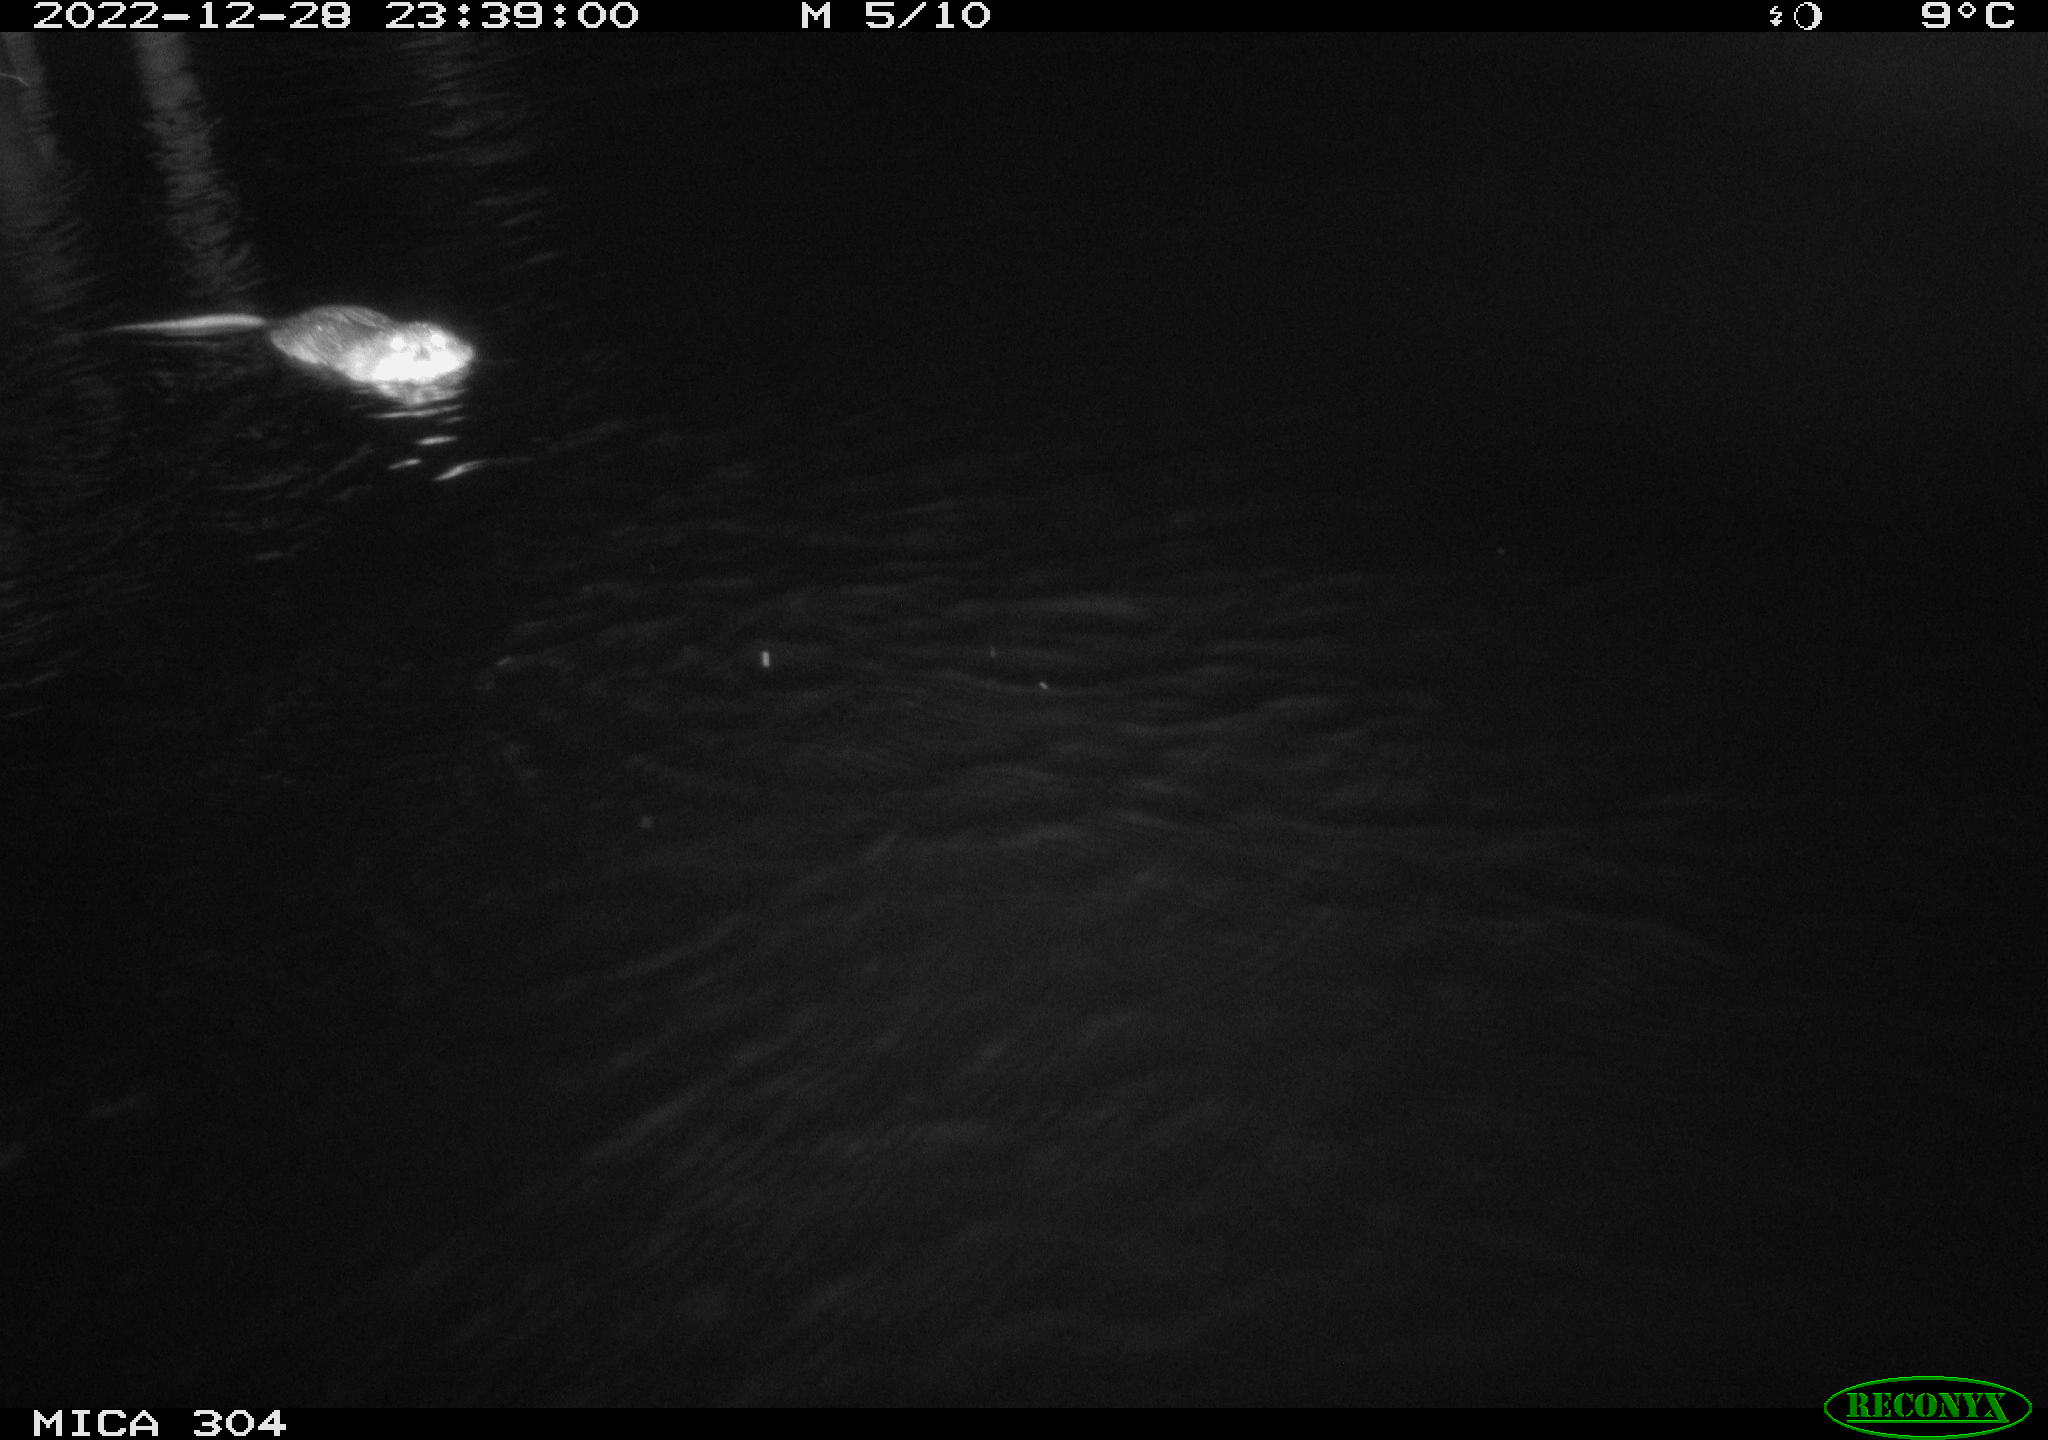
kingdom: Animalia
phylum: Chordata
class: Mammalia
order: Rodentia
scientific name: Rodentia
